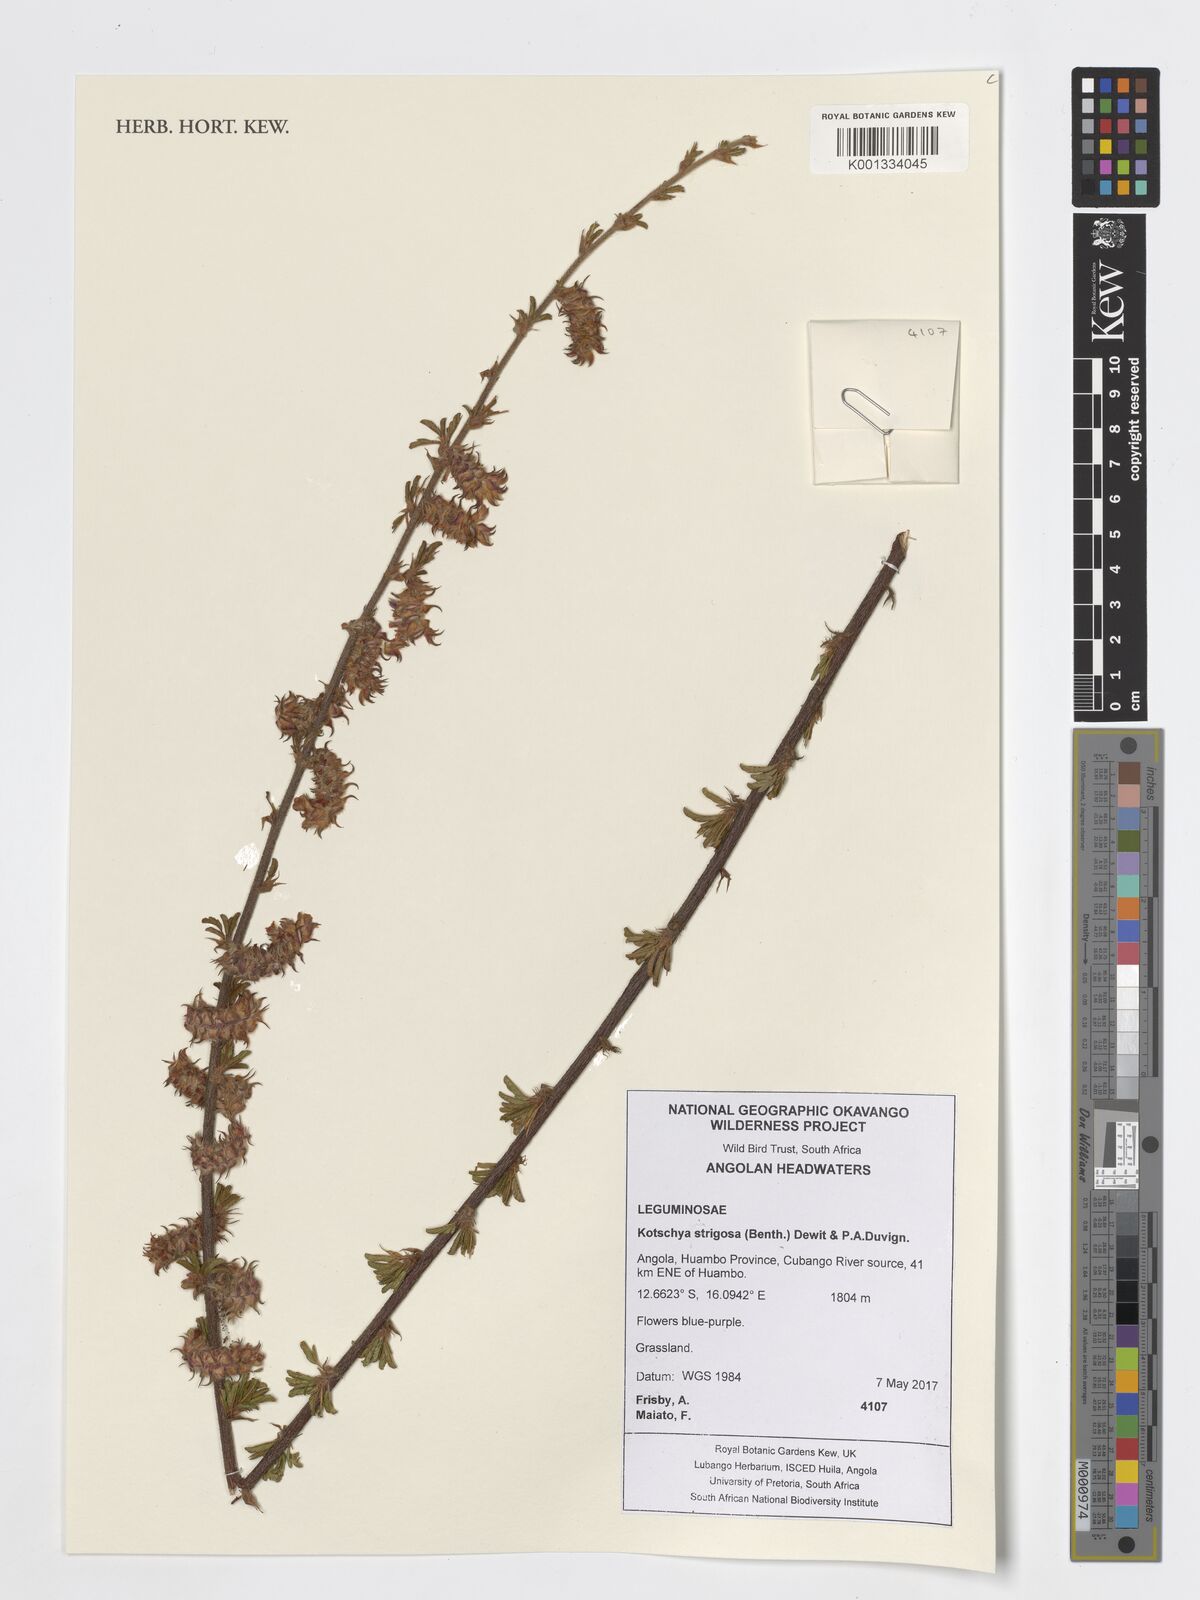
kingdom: Plantae
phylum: Tracheophyta
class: Magnoliopsida
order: Fabales
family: Fabaceae
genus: Kotschya
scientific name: Kotschya strigosa
